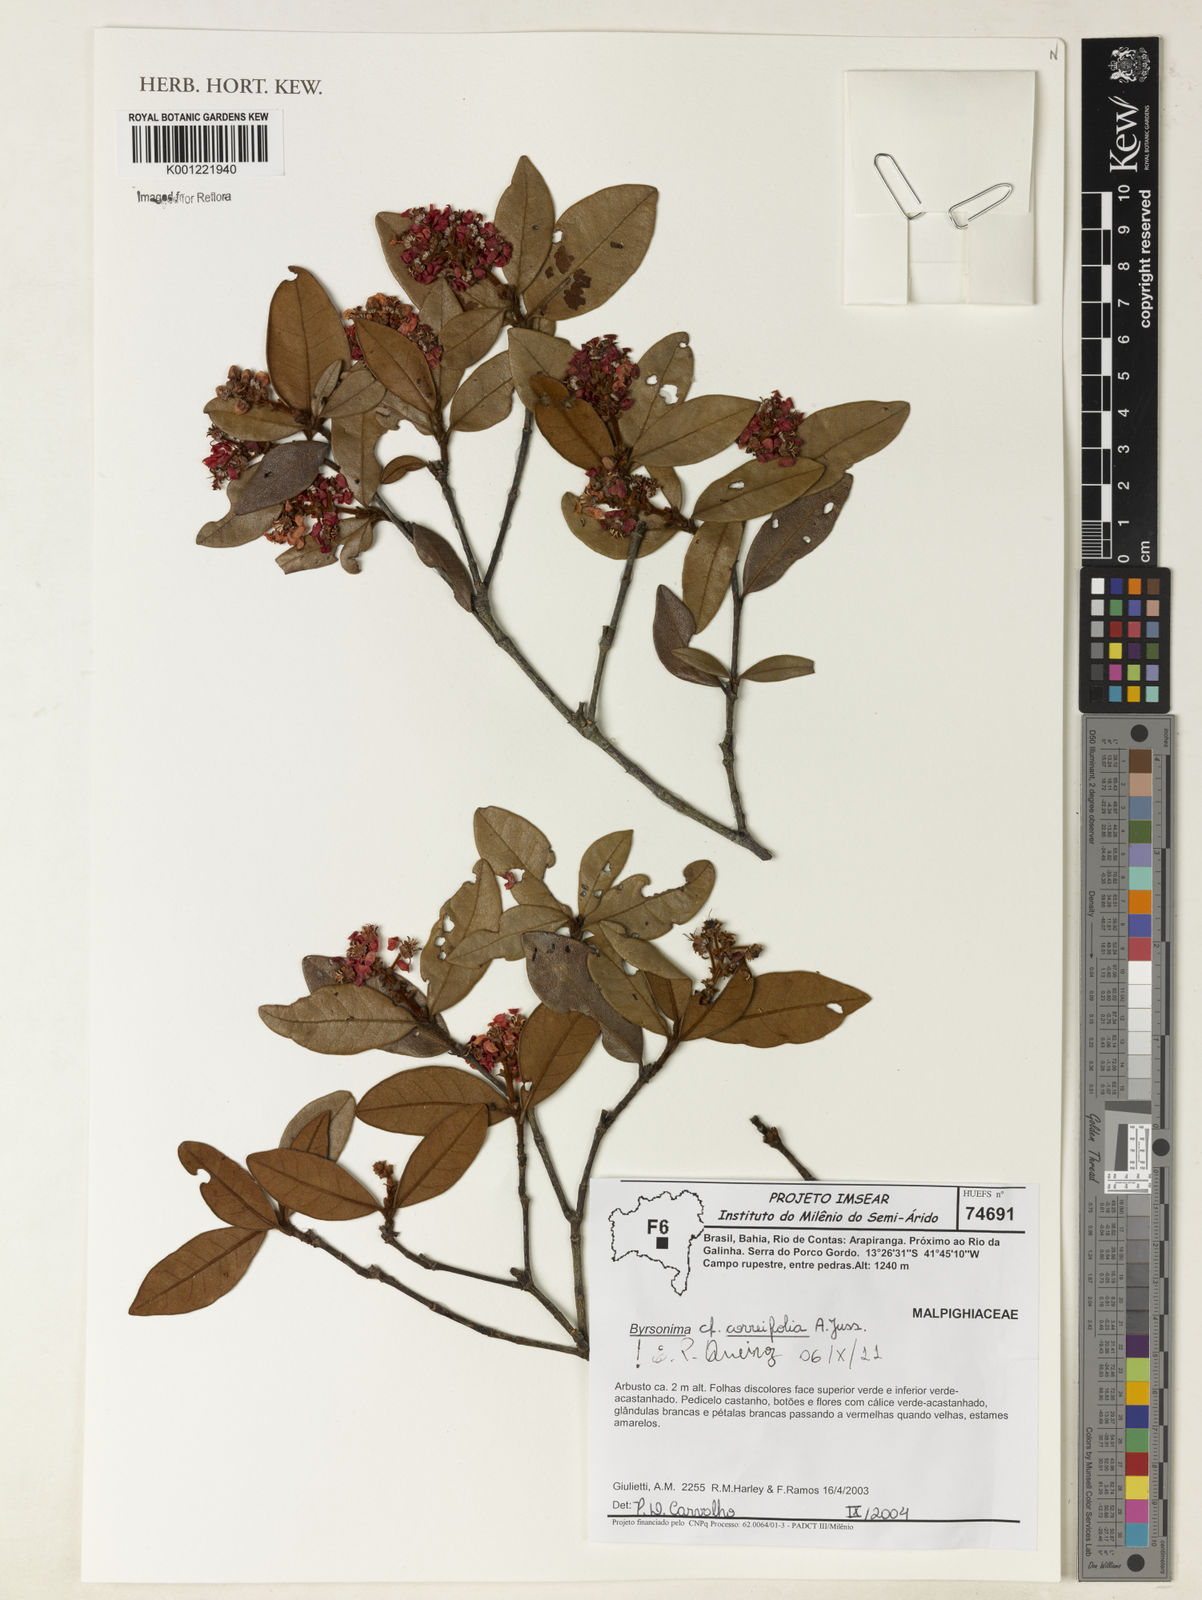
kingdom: Plantae
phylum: Tracheophyta
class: Magnoliopsida
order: Malpighiales
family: Malpighiaceae
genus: Byrsonima
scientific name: Byrsonima correifolia
